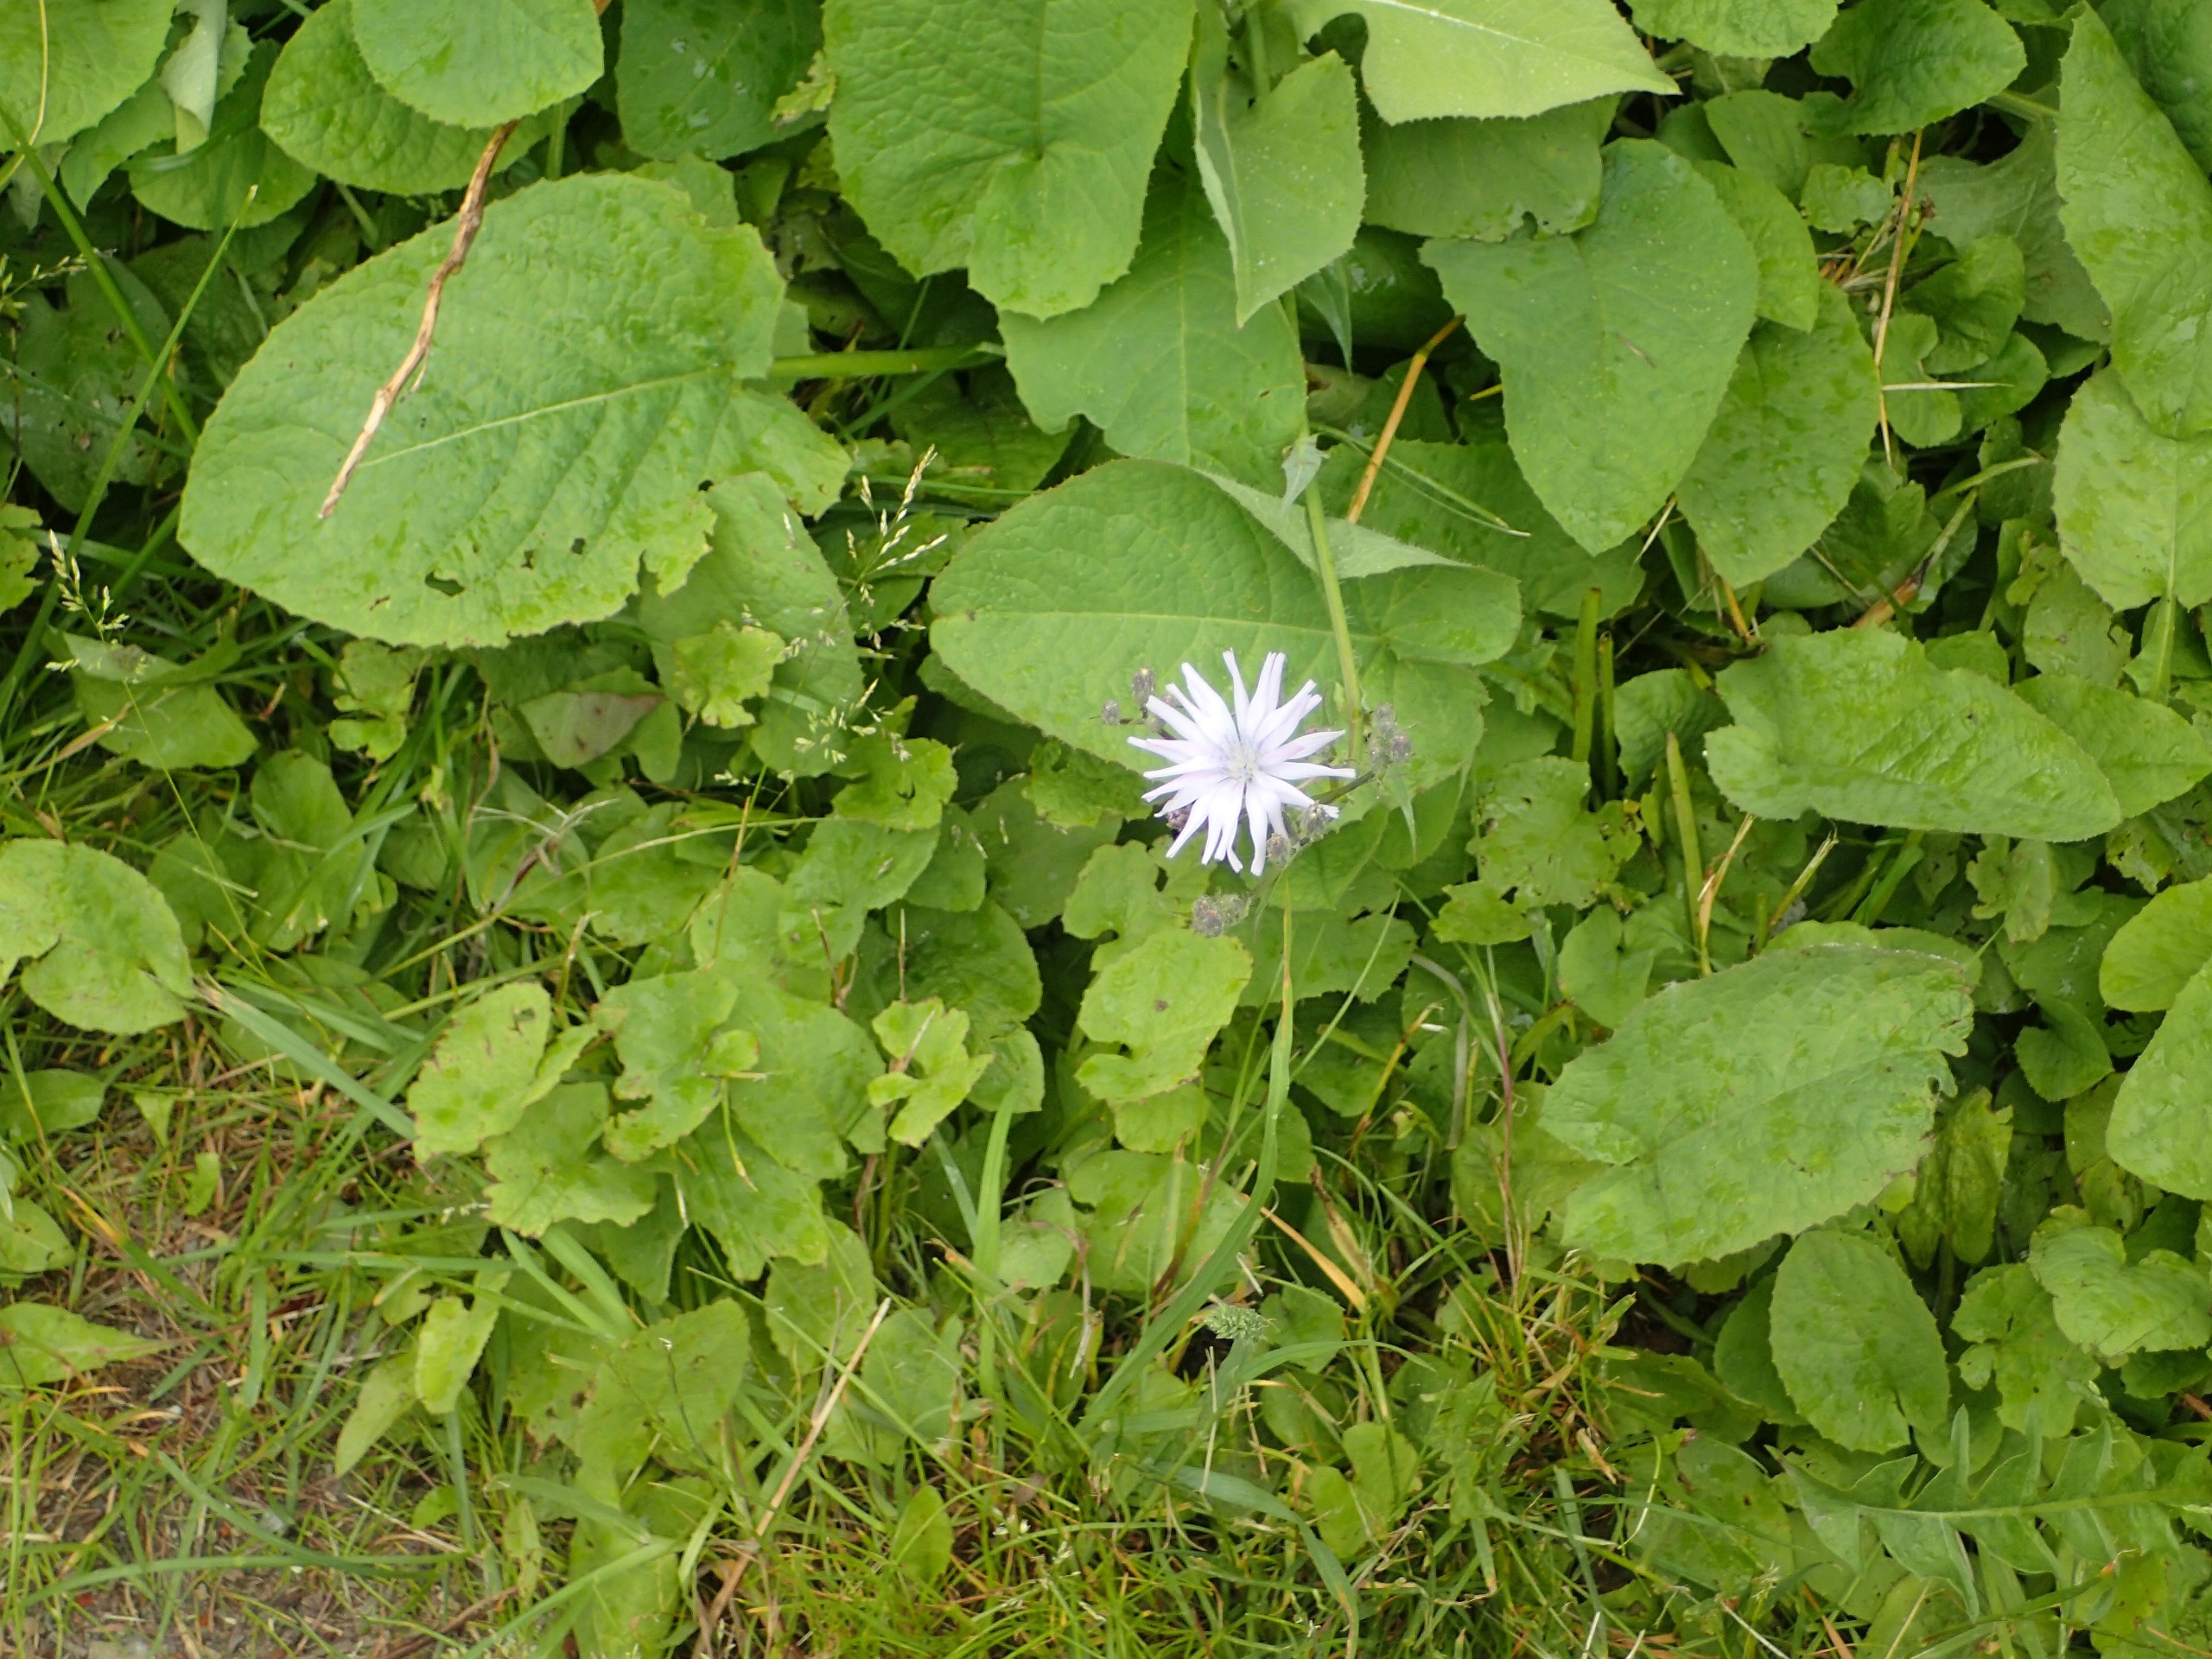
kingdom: Plantae
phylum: Tracheophyta
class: Magnoliopsida
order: Asterales
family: Asteraceae
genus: Lactuca
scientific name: Lactuca macrophylla
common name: Kæmpe-salat
